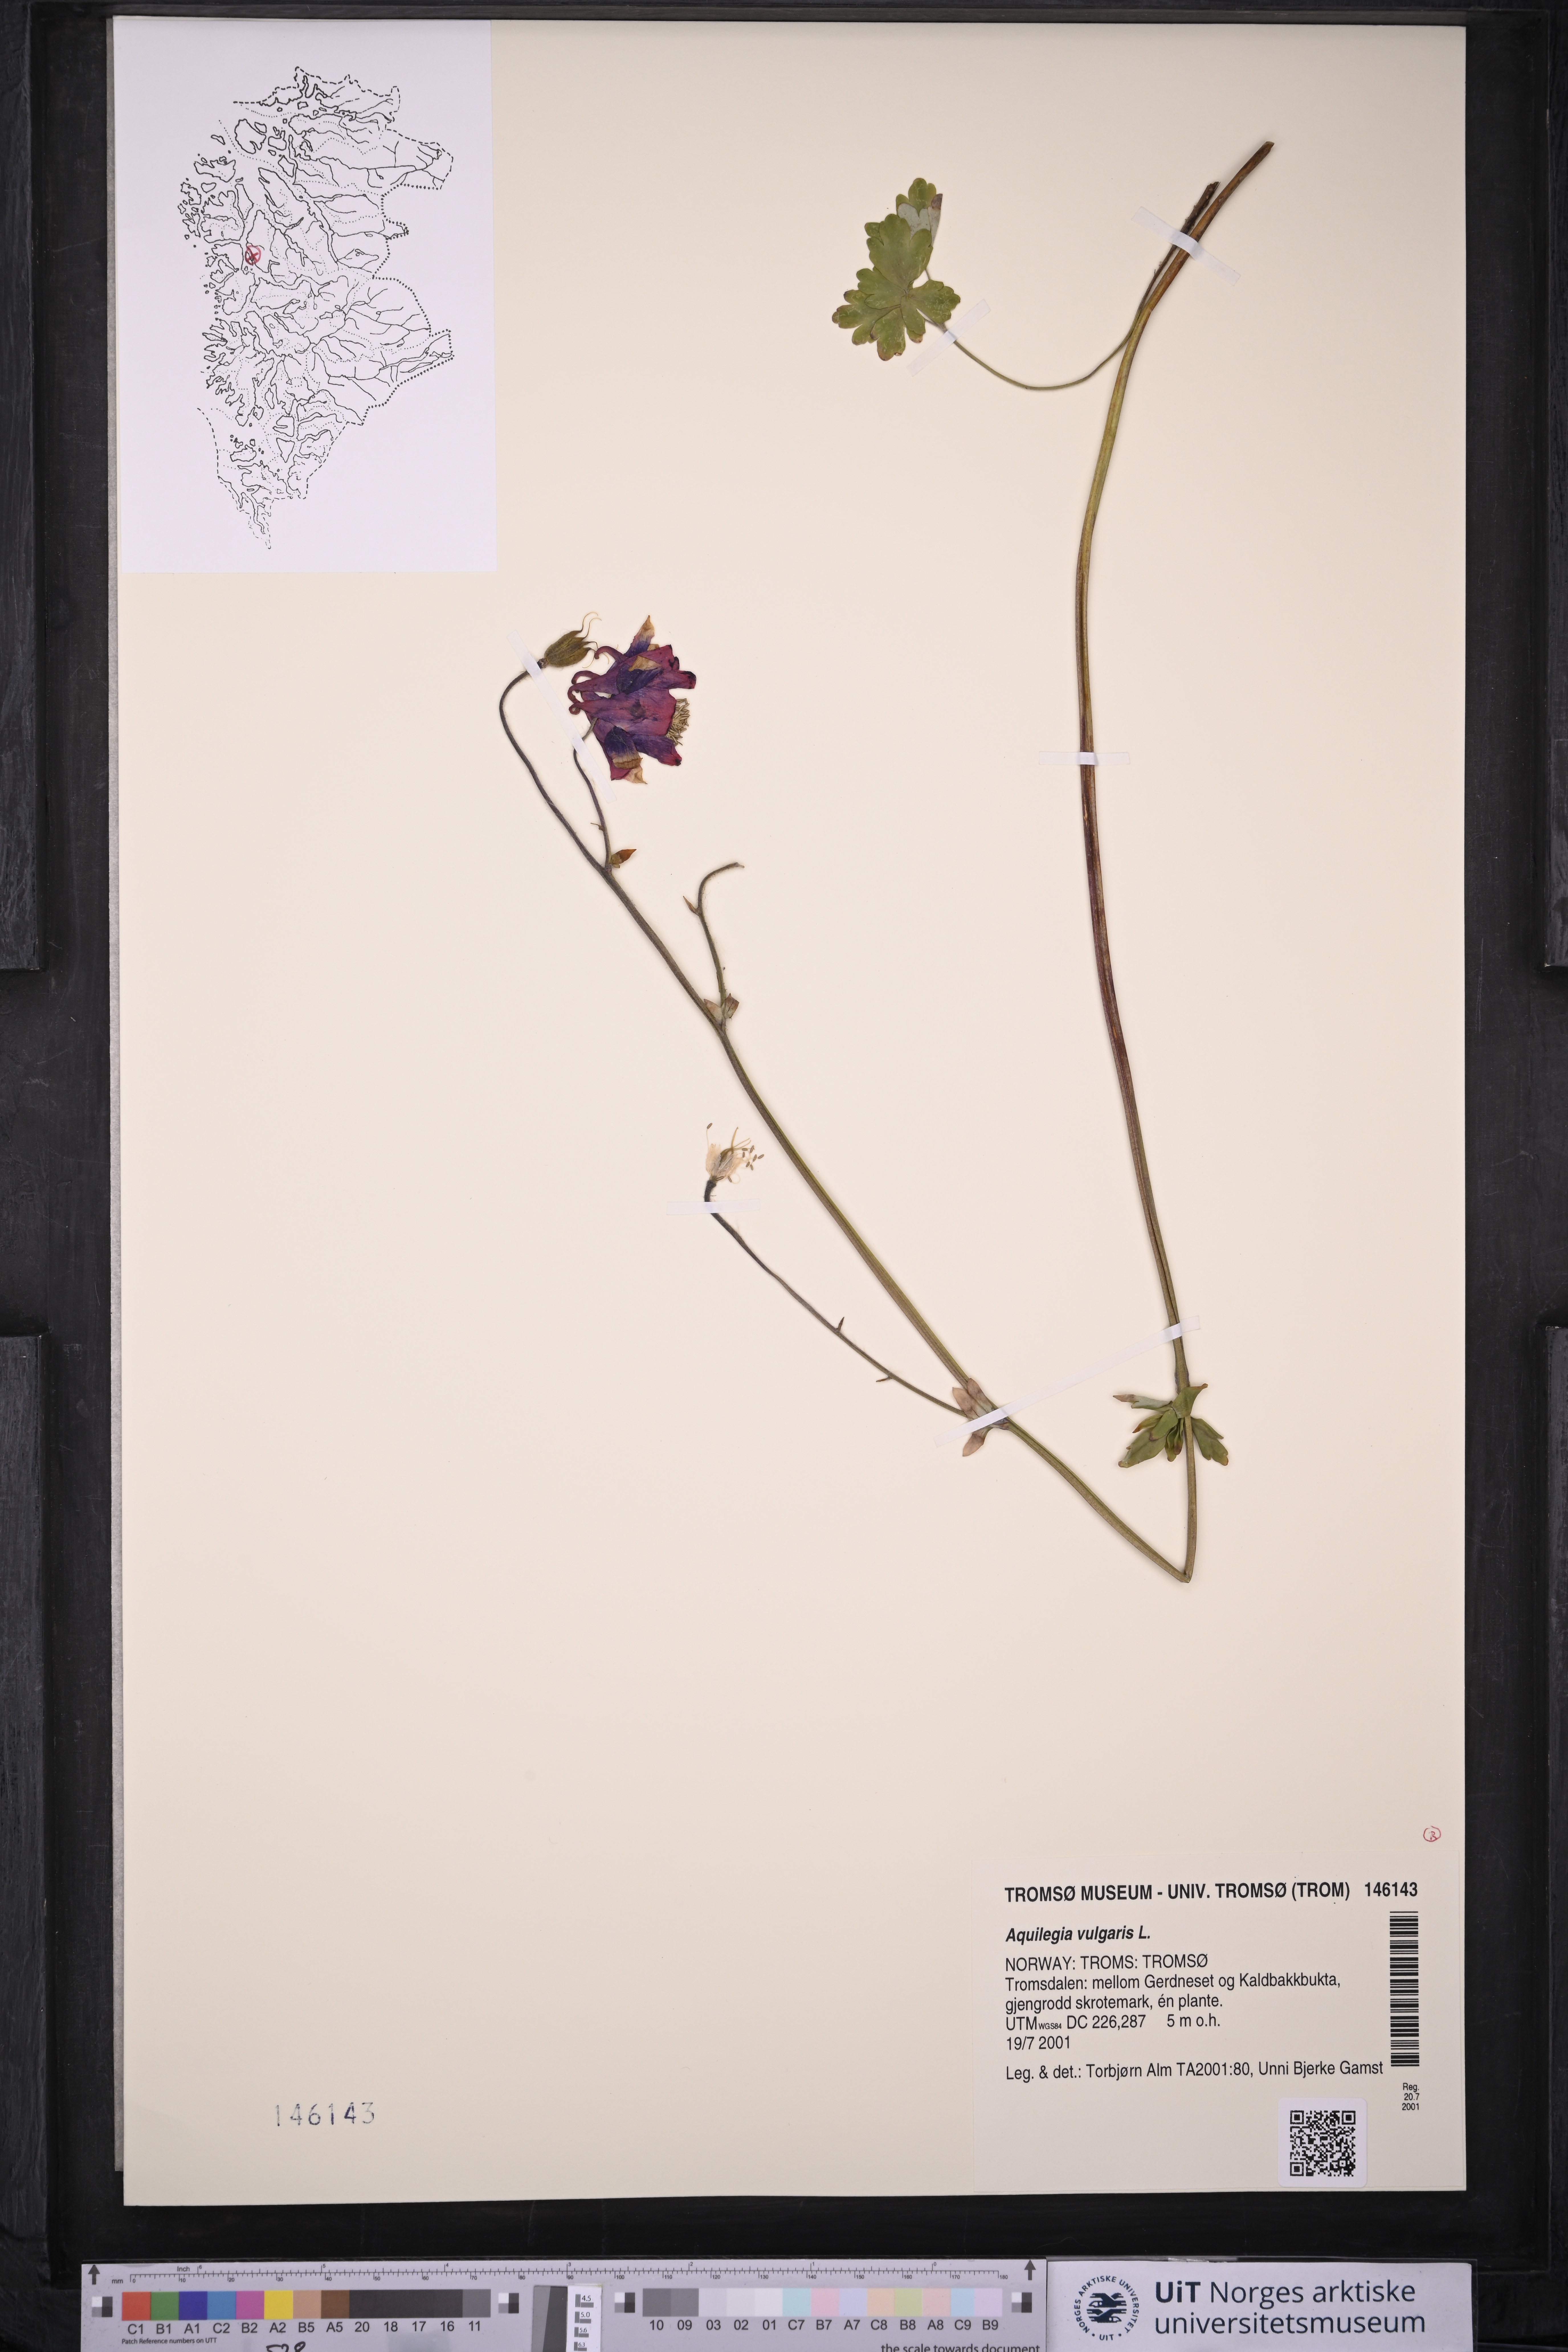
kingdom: Plantae
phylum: Tracheophyta
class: Magnoliopsida
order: Ranunculales
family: Ranunculaceae
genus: Aquilegia
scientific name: Aquilegia vulgaris
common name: Columbine
